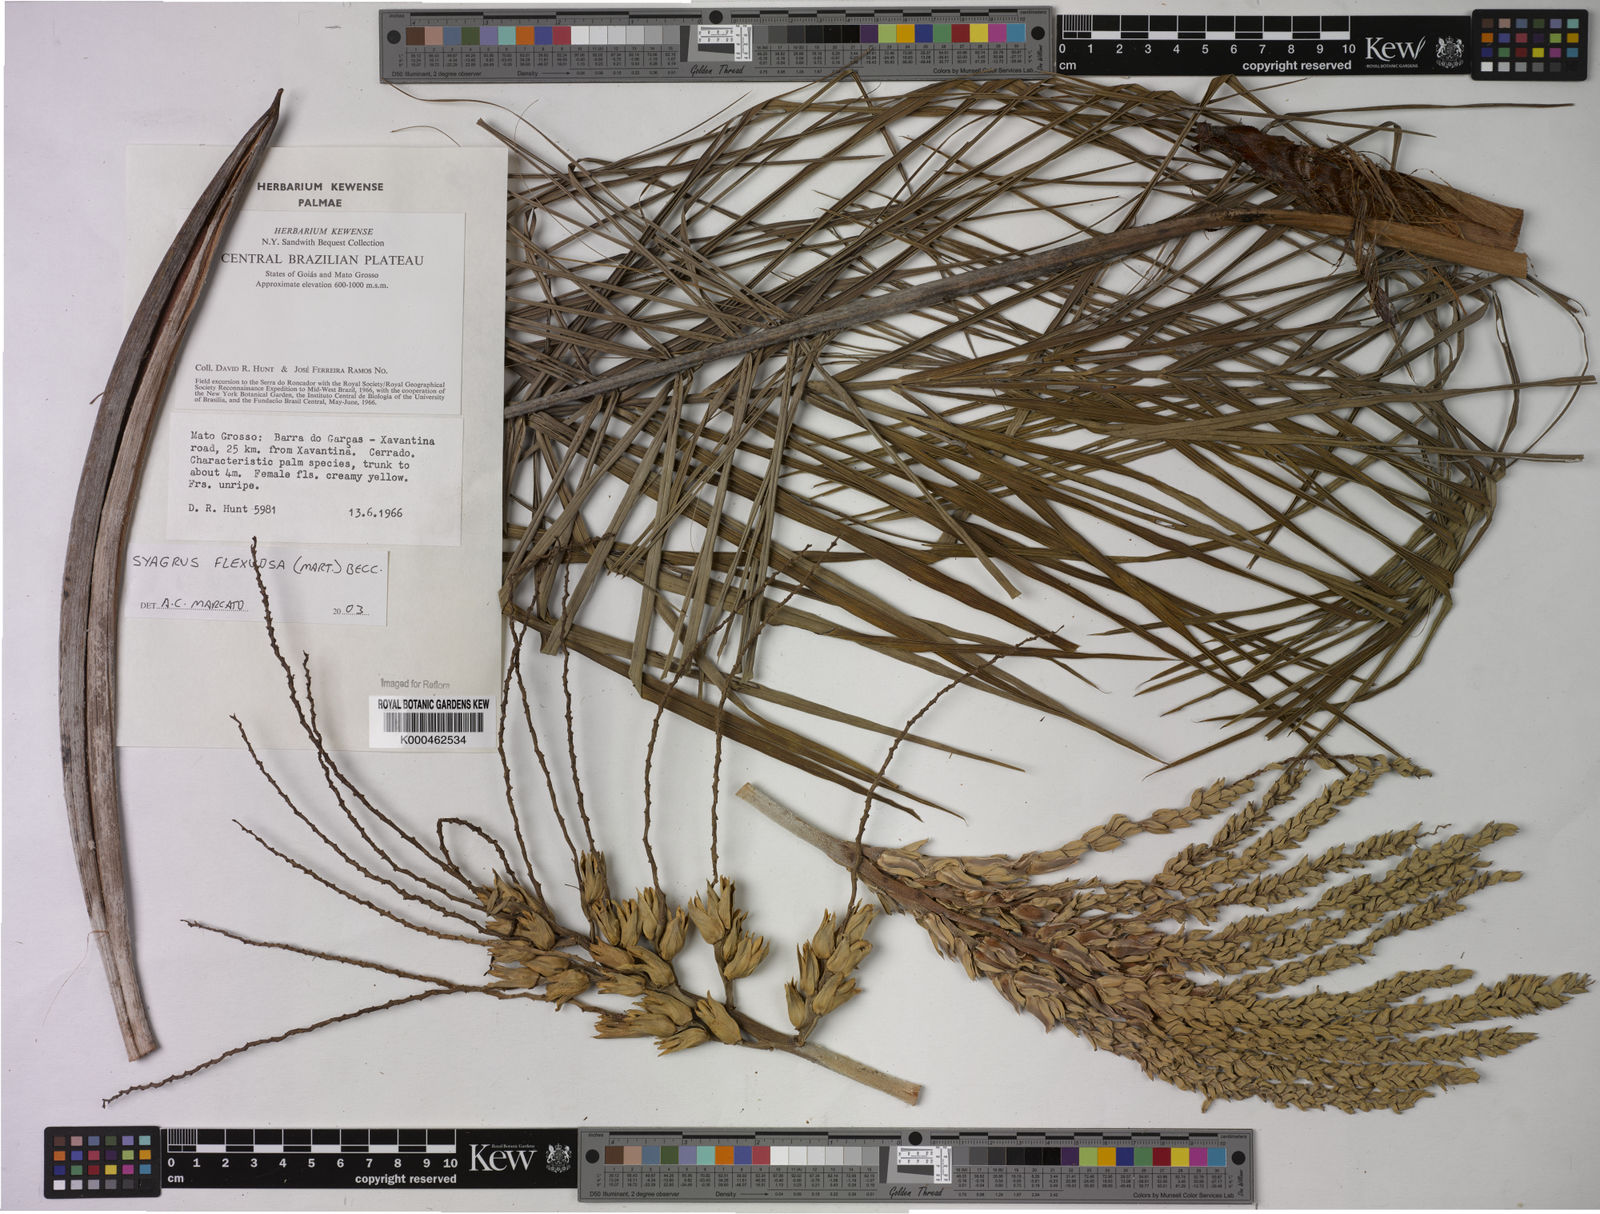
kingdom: Plantae
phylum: Tracheophyta
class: Liliopsida
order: Arecales
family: Arecaceae
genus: Syagrus
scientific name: Syagrus flexuosa
